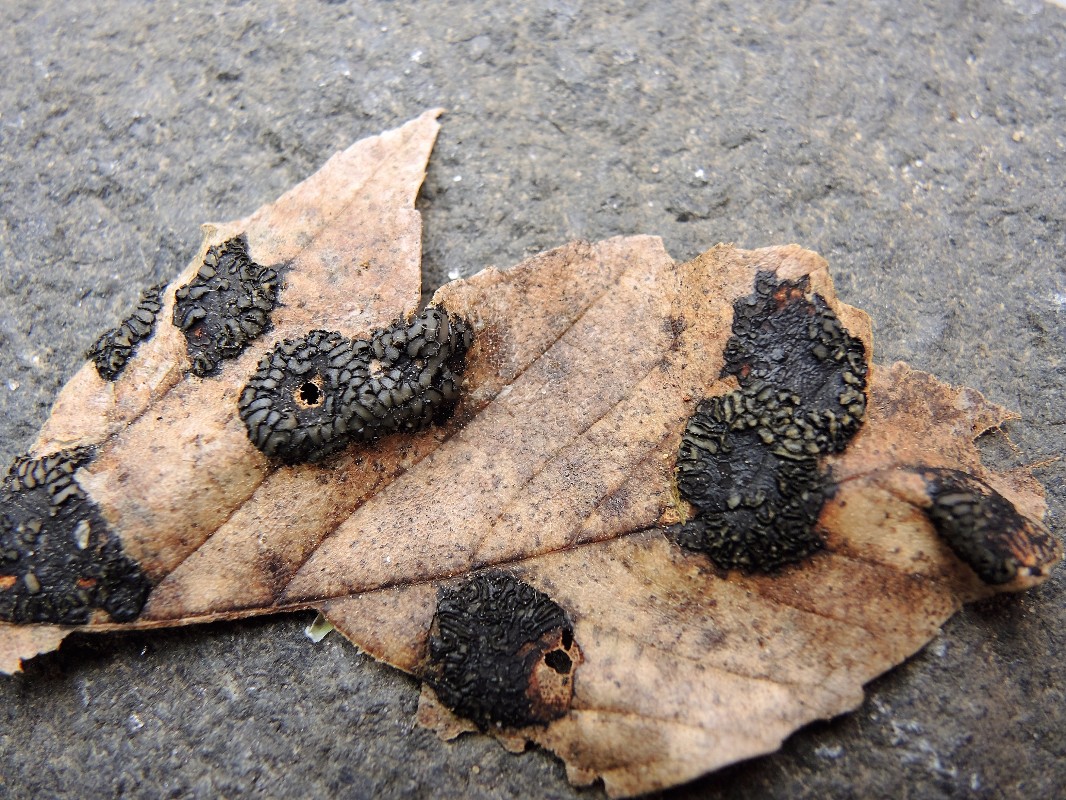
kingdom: Fungi
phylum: Ascomycota
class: Leotiomycetes
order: Rhytismatales
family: Rhytismataceae
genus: Rhytisma
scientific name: Rhytisma acerinum
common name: ahorn-rynkeplet
